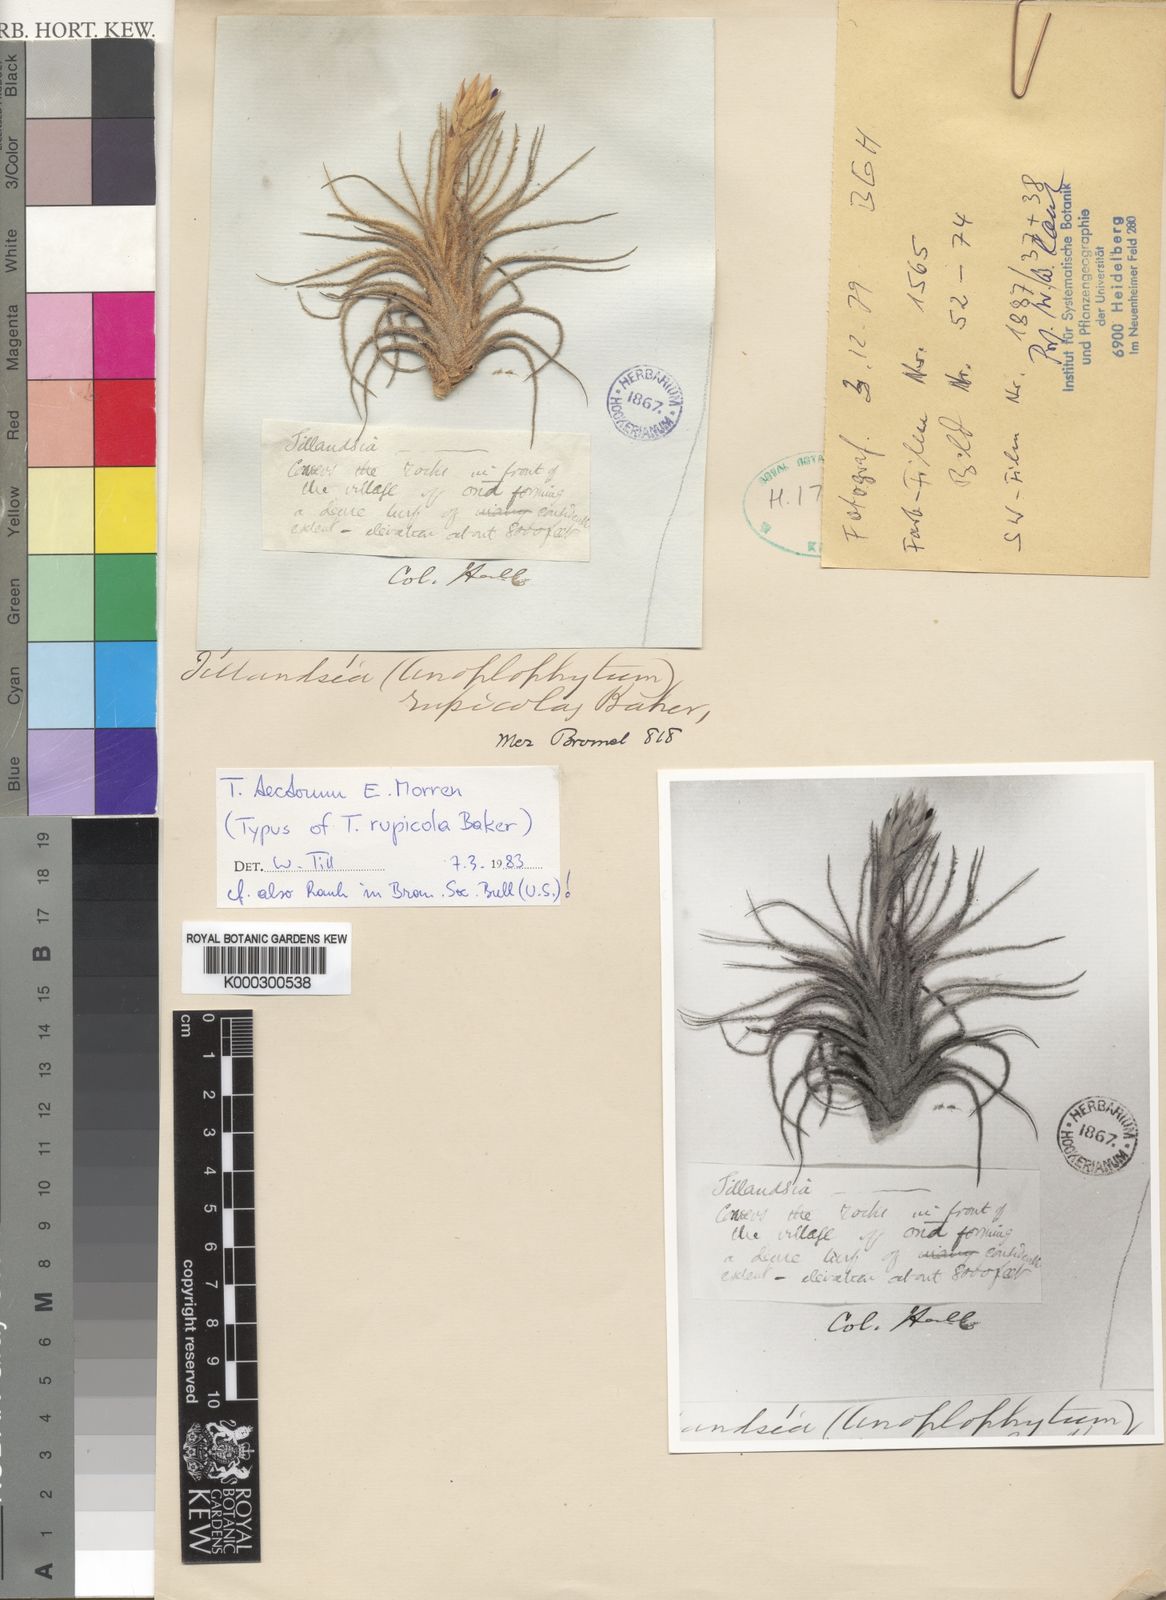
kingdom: Plantae
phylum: Tracheophyta
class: Liliopsida
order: Poales
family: Bromeliaceae
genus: Tillandsia
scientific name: Tillandsia tectorum
